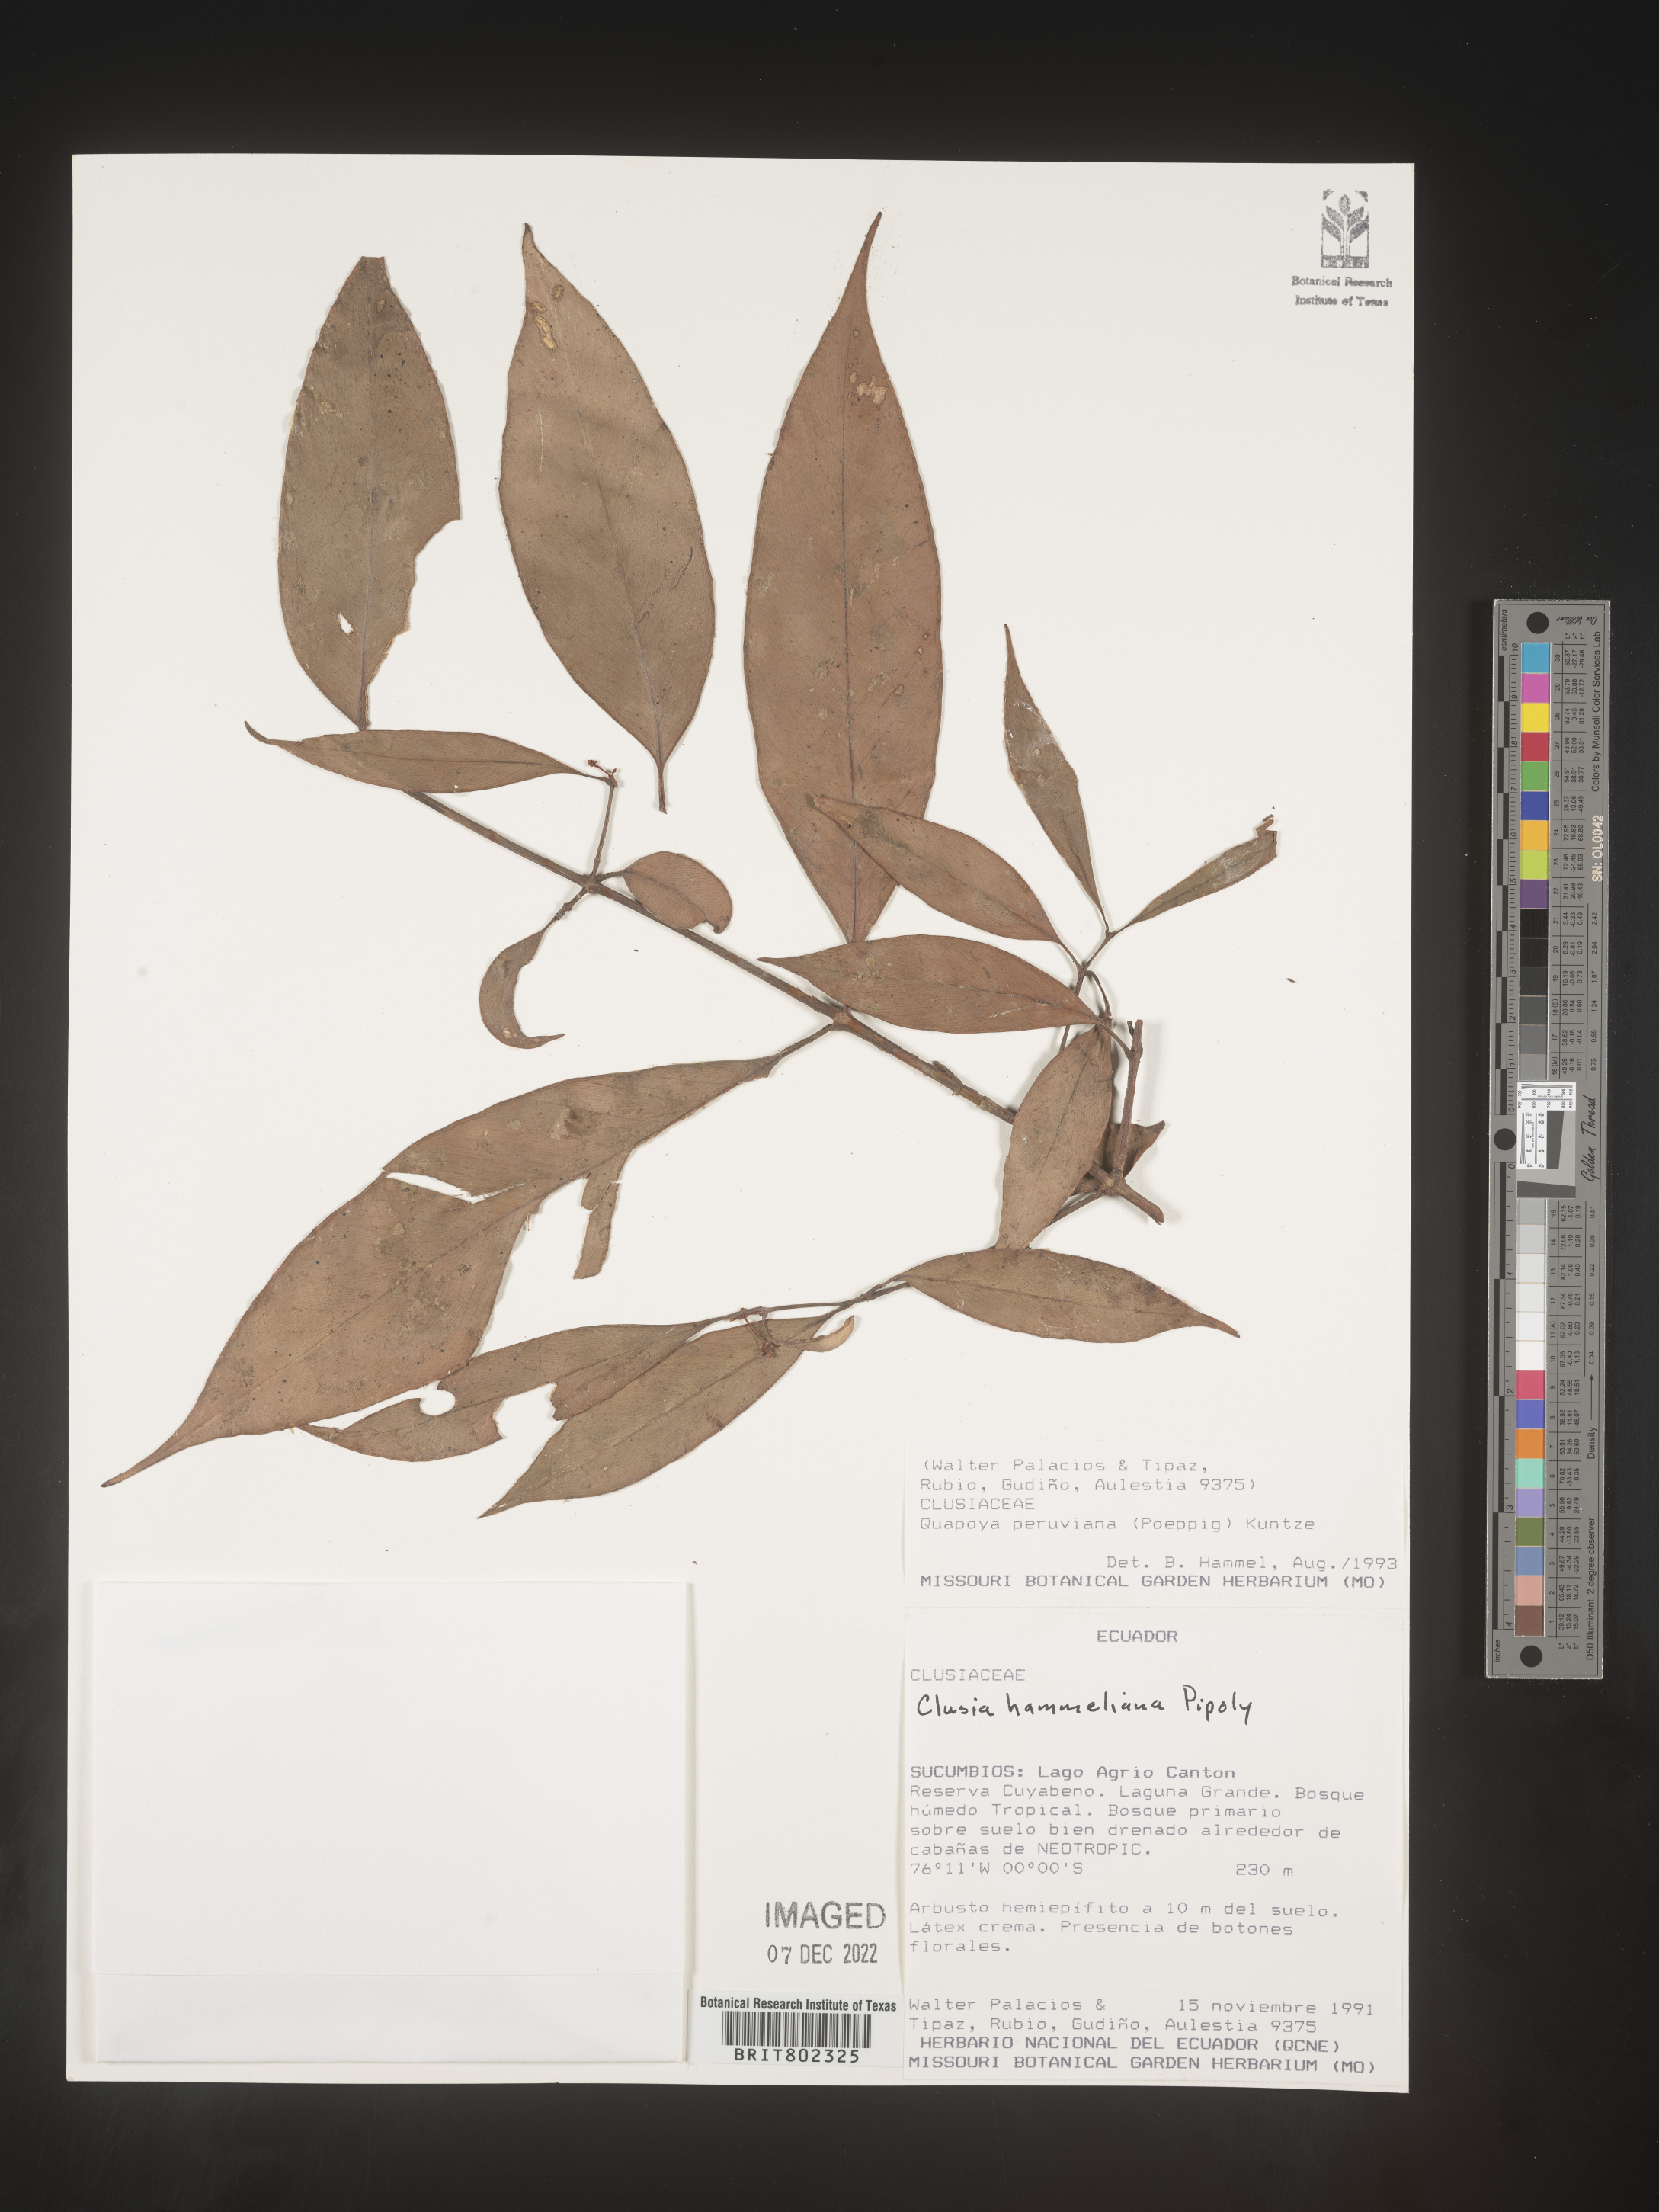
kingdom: Plantae
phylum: Tracheophyta
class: Magnoliopsida
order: Malpighiales
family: Clusiaceae
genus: Clusia
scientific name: Clusia hammeliana
